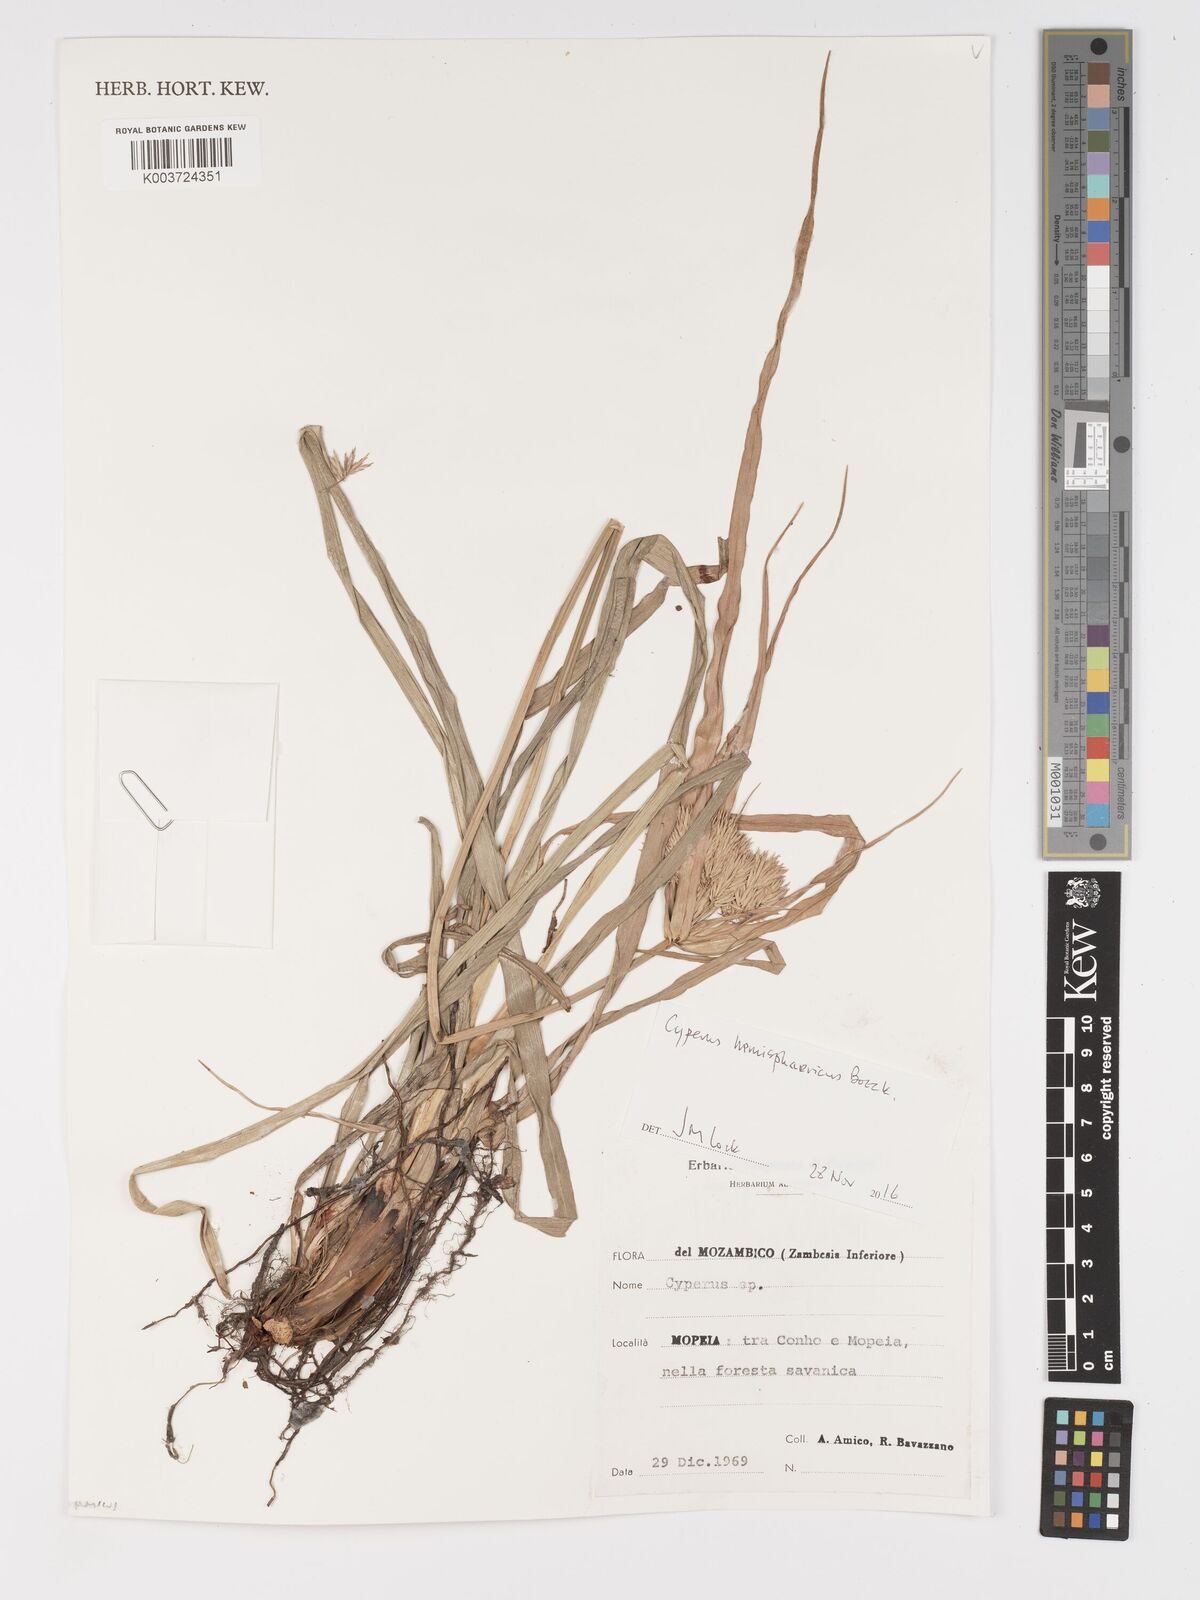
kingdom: Plantae
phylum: Tracheophyta
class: Liliopsida
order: Poales
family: Cyperaceae
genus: Cyperus
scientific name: Cyperus hemisphaericus
